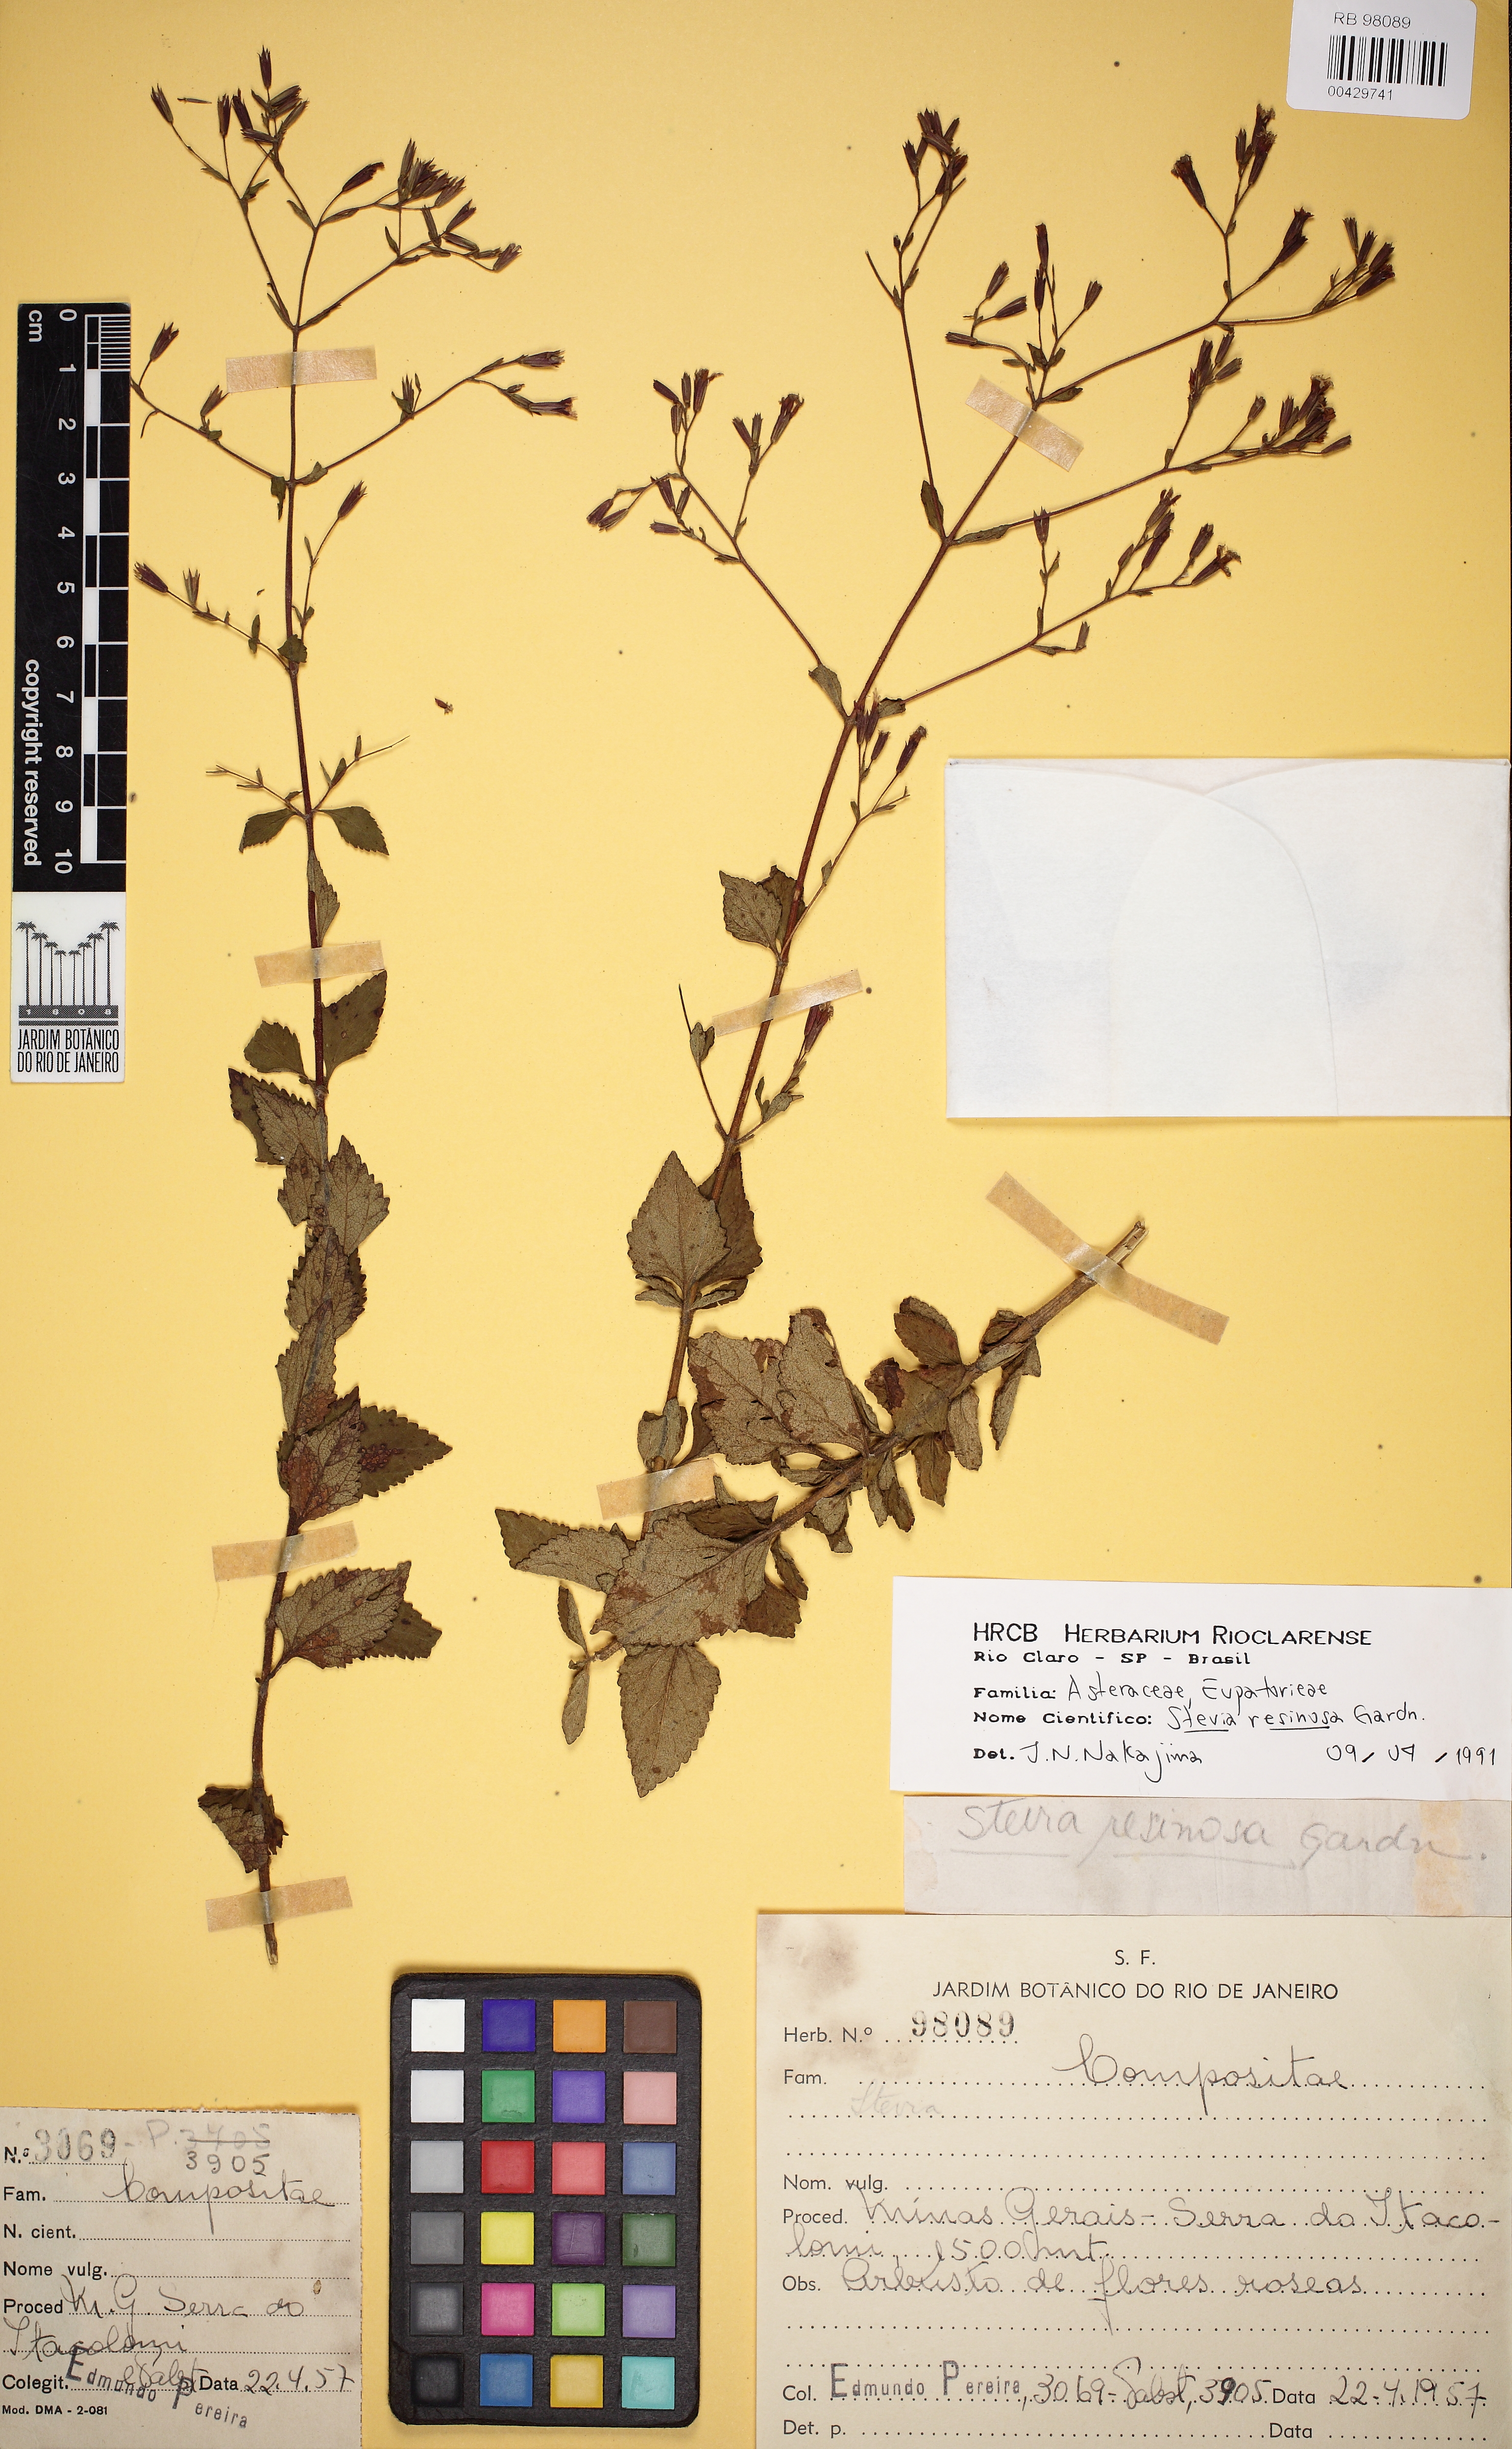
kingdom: Plantae
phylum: Tracheophyta
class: Magnoliopsida
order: Asterales
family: Asteraceae
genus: Stevia
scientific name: Stevia resinosa
